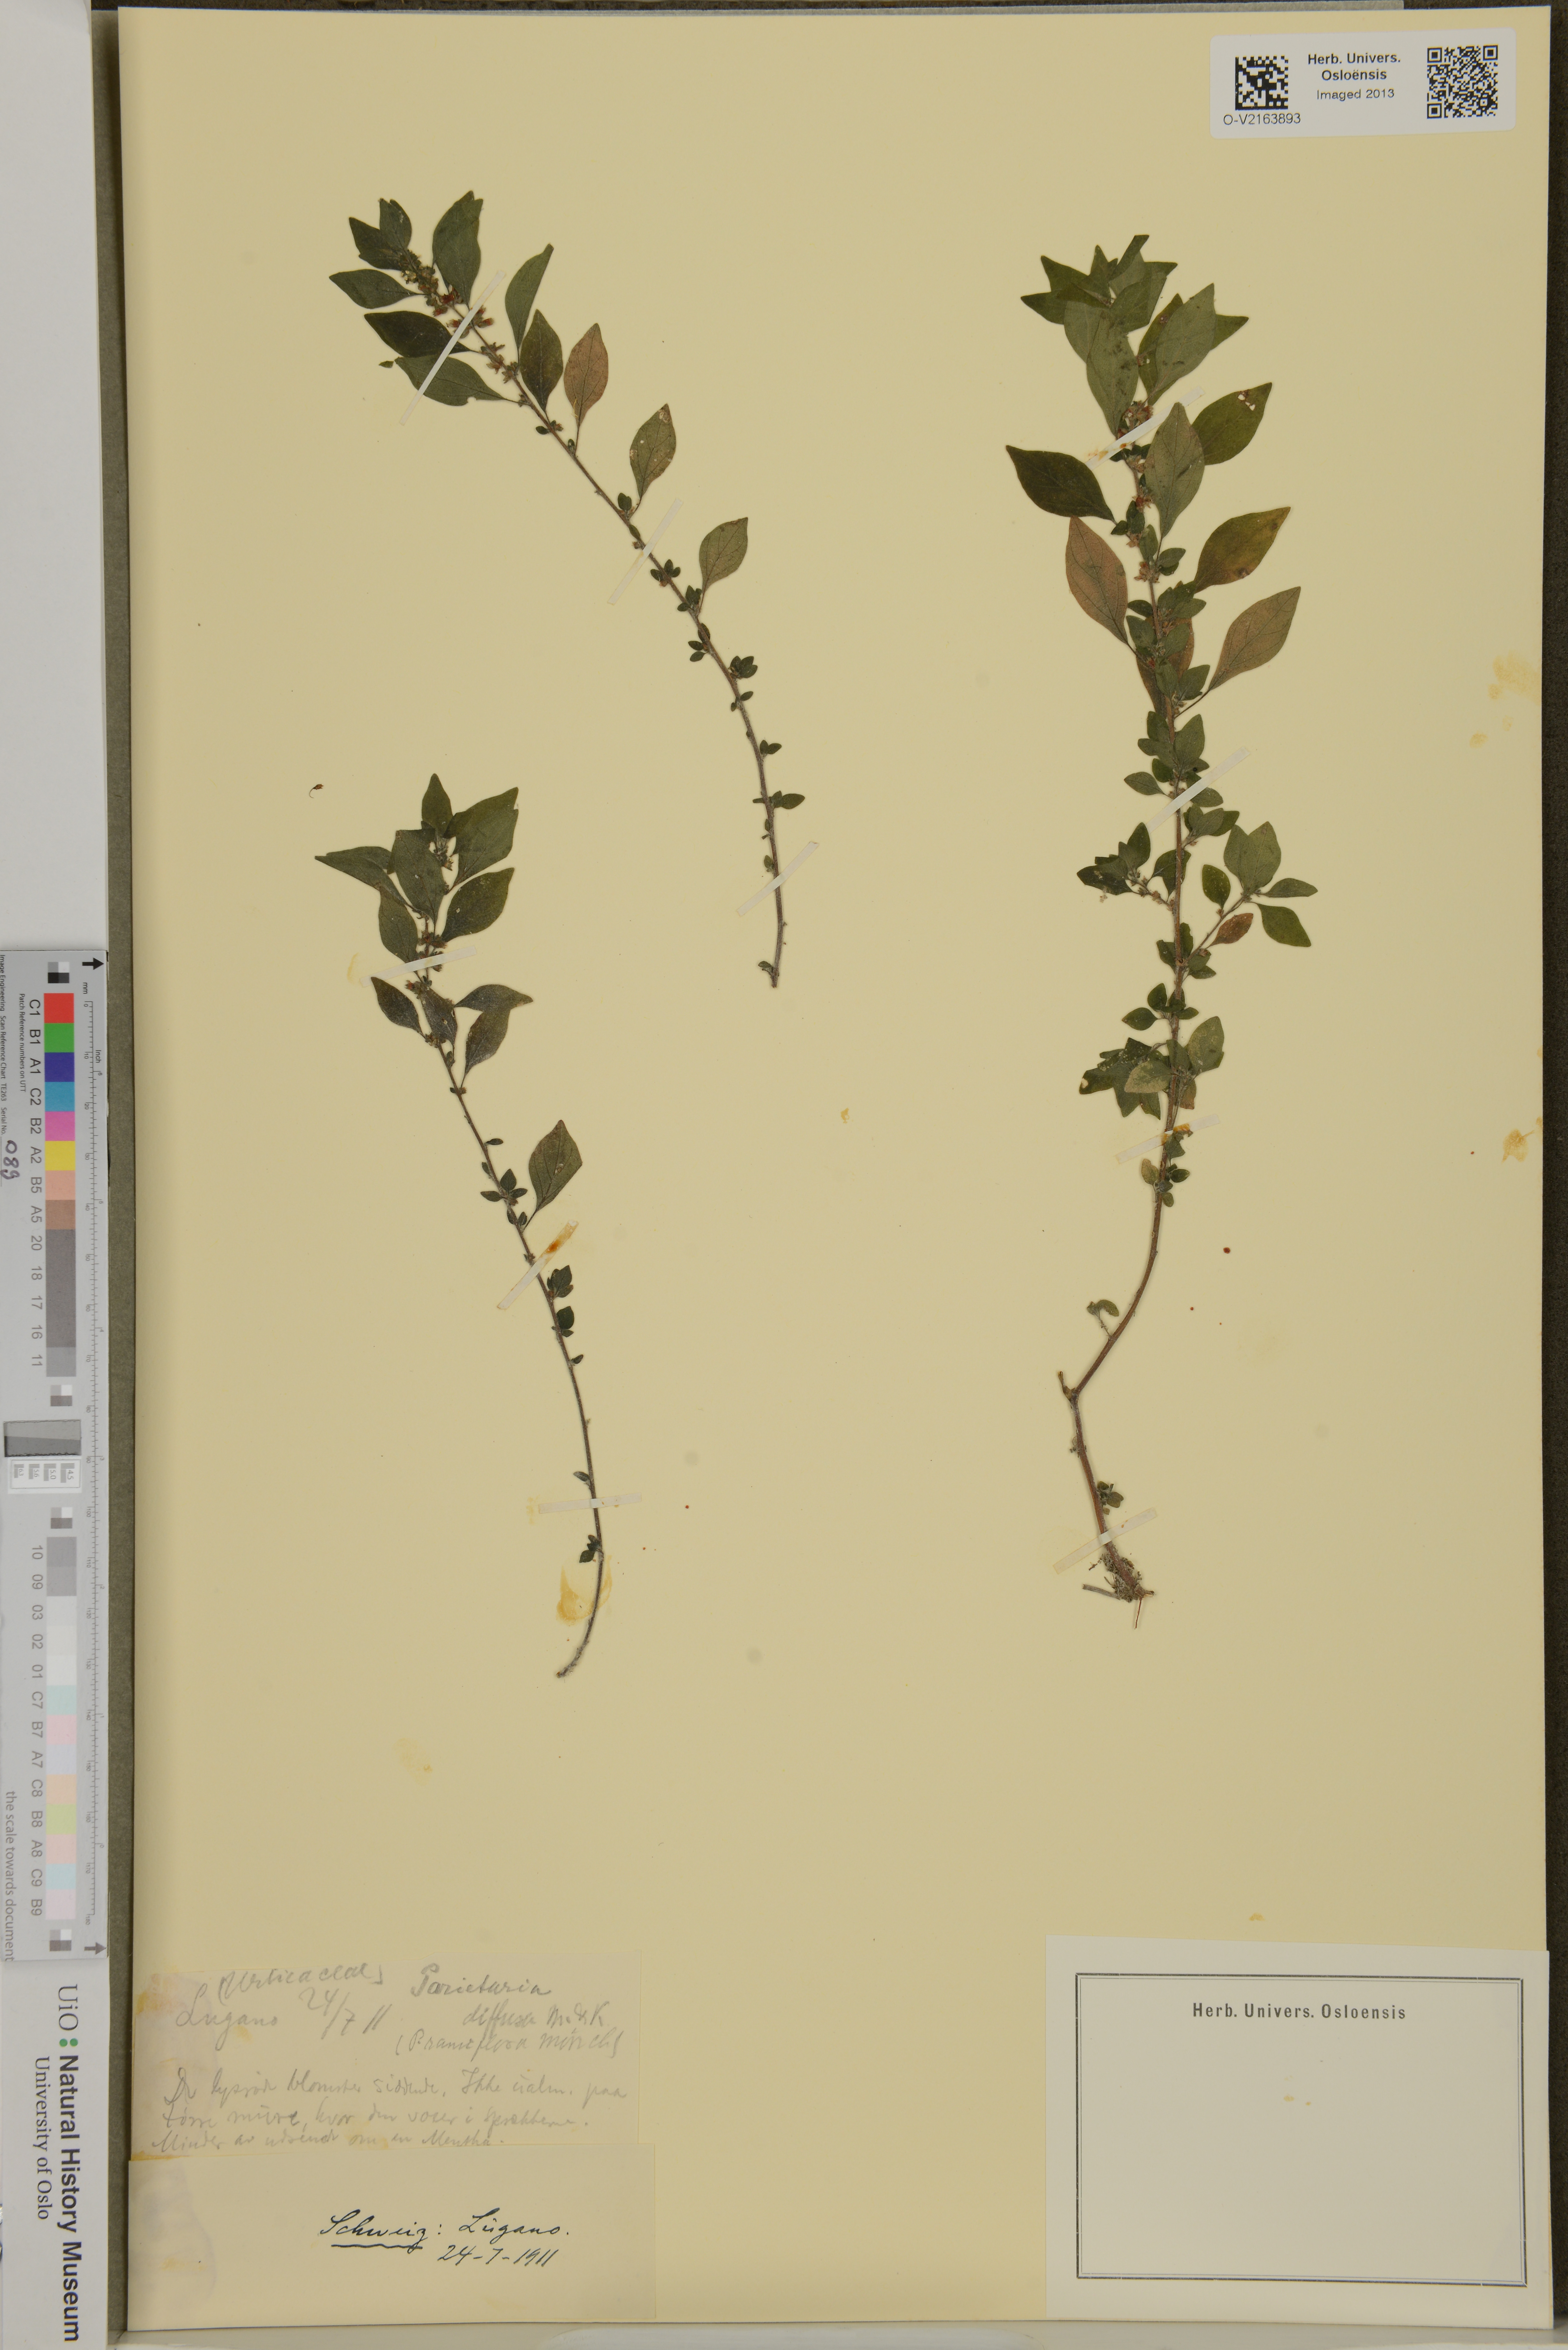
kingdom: Plantae
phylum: Tracheophyta
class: Magnoliopsida
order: Rosales
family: Urticaceae
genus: Parietaria
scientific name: Parietaria judaica
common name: Pellitory-of-the-wall
